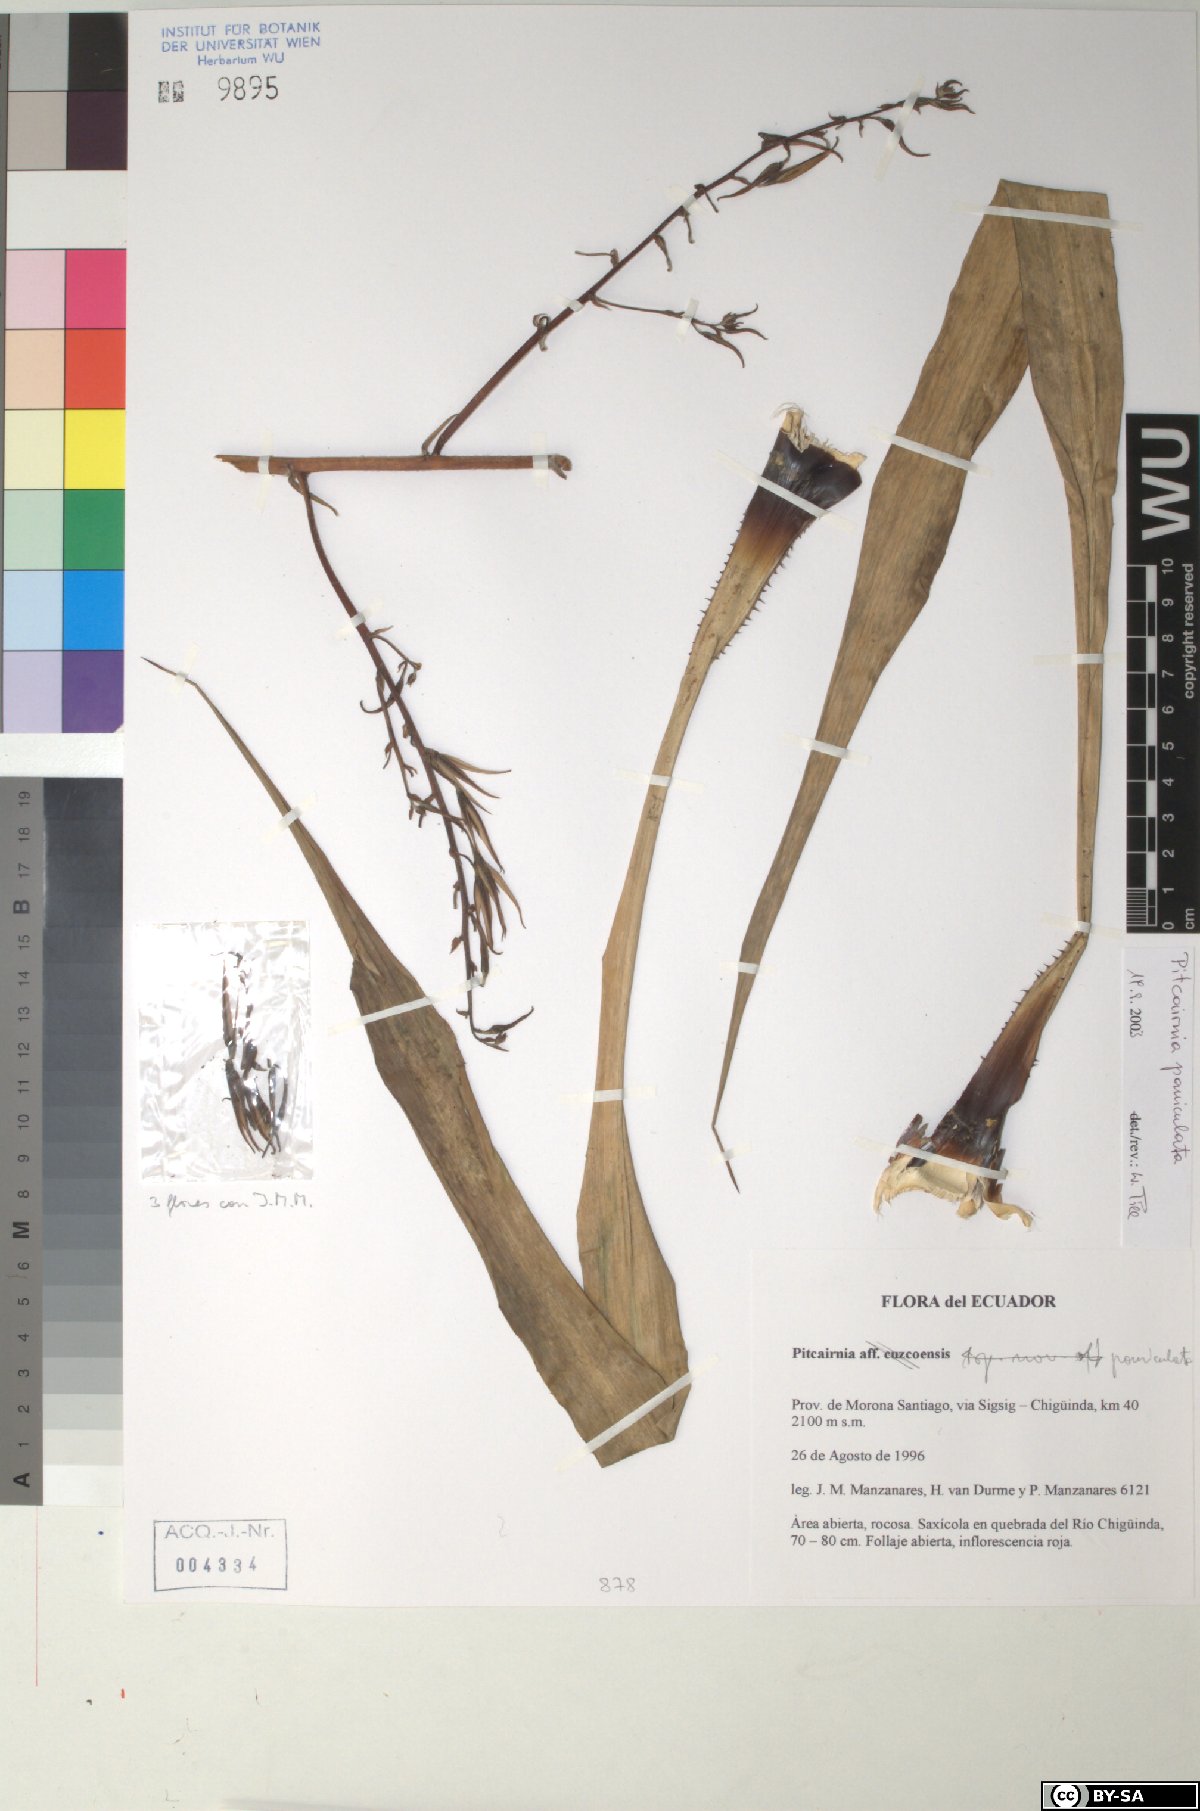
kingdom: Plantae
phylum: Tracheophyta
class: Liliopsida
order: Poales
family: Bromeliaceae
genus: Pitcairnia
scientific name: Pitcairnia paniculata
